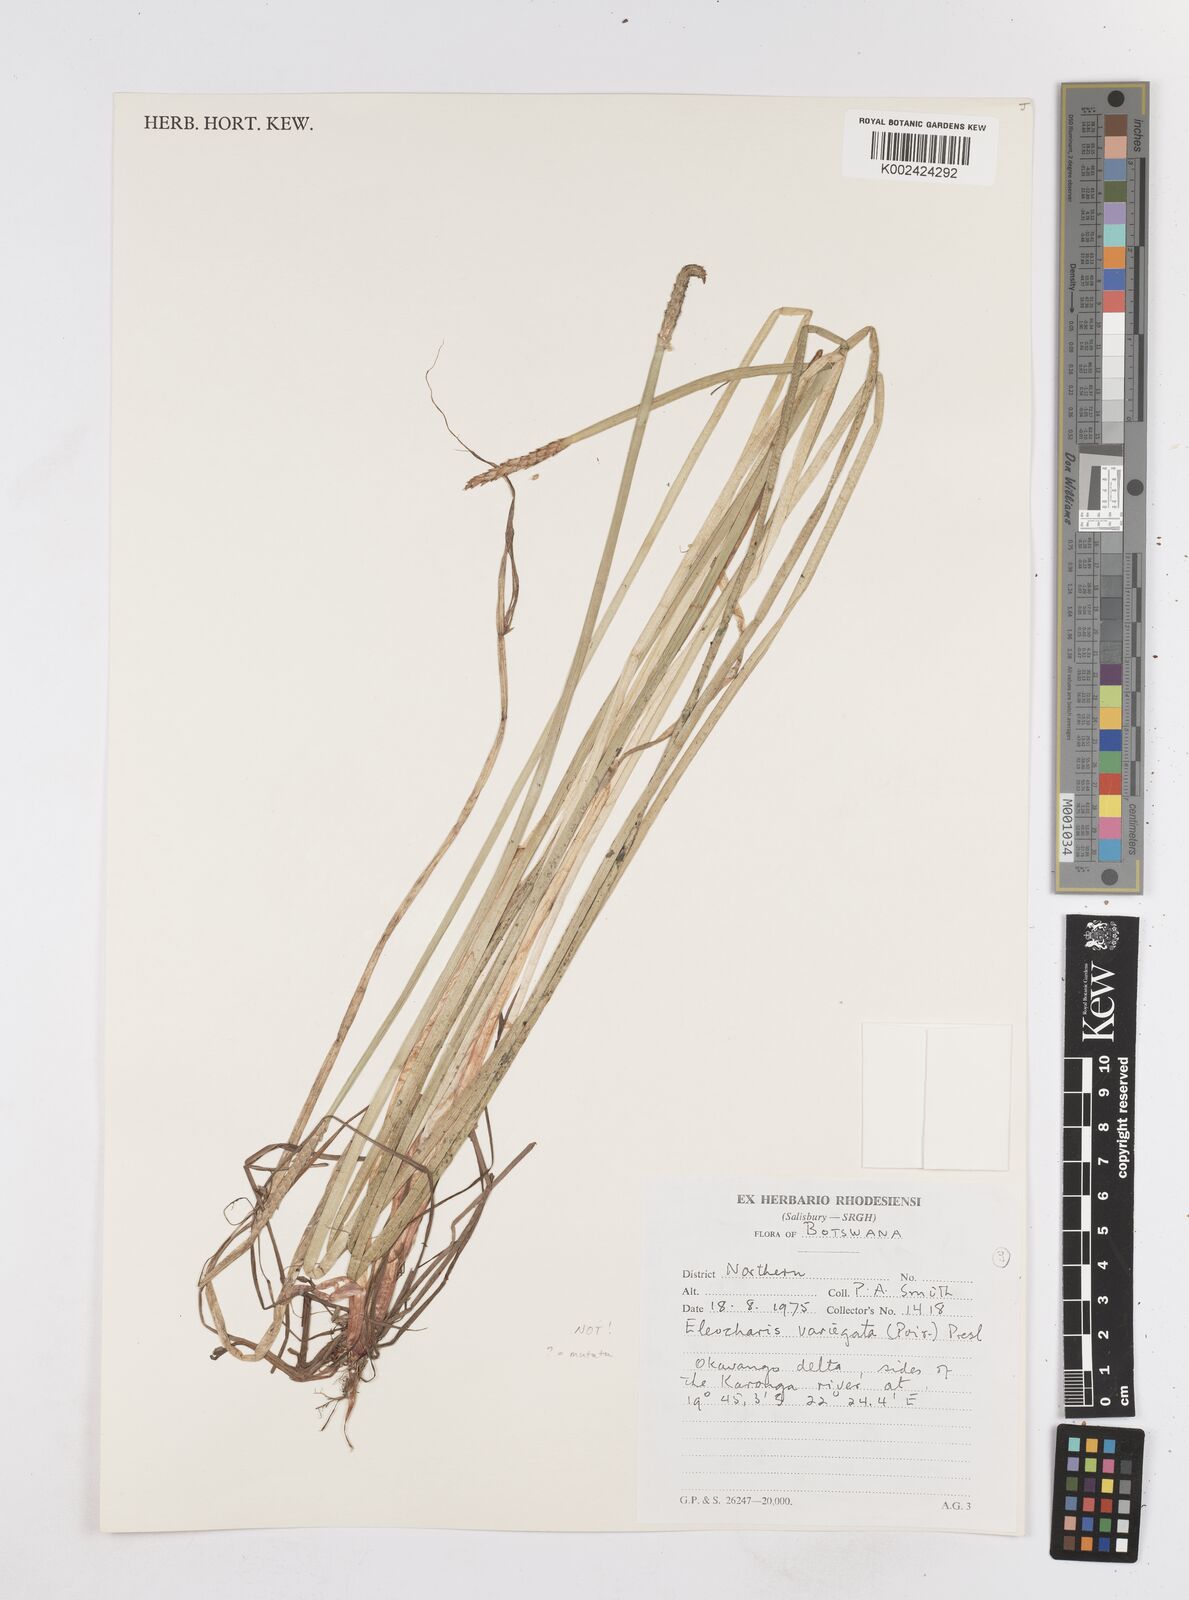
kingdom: Plantae
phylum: Tracheophyta
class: Liliopsida
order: Poales
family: Cyperaceae
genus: Eleocharis
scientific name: Eleocharis variegata
